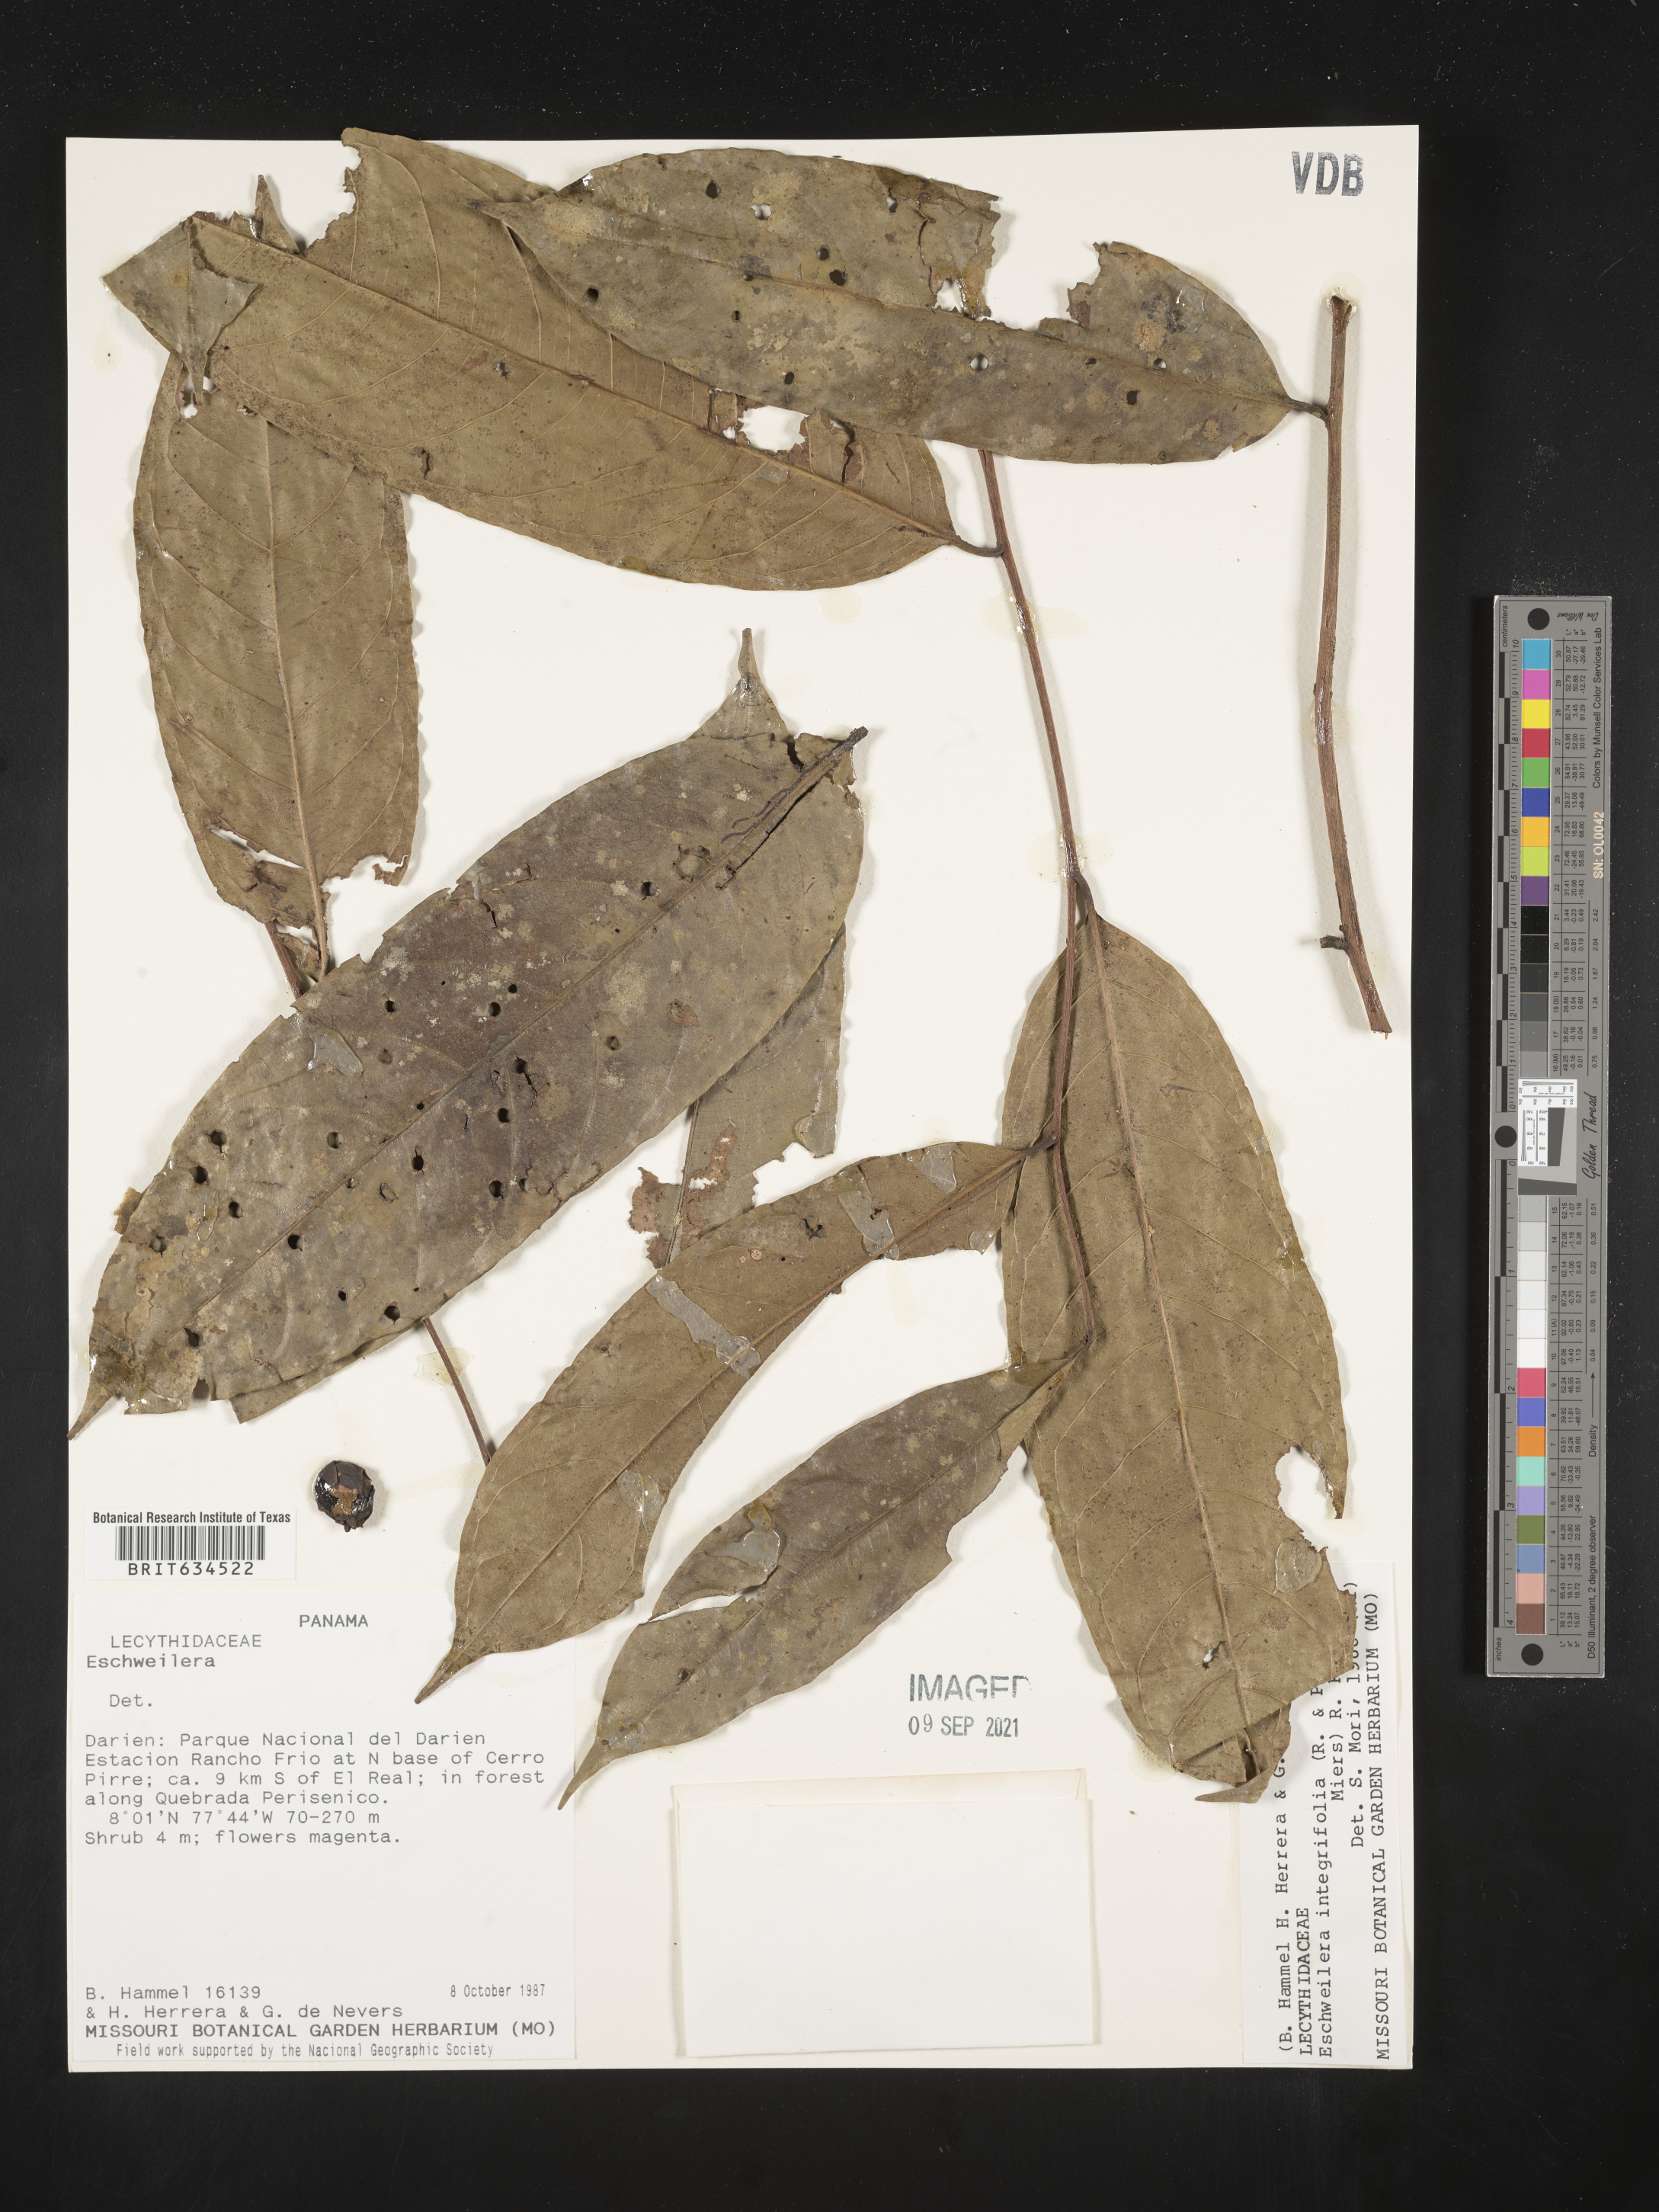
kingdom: Plantae
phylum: Tracheophyta
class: Magnoliopsida
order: Ericales
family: Lecythidaceae
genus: Eschweilera
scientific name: Eschweilera
